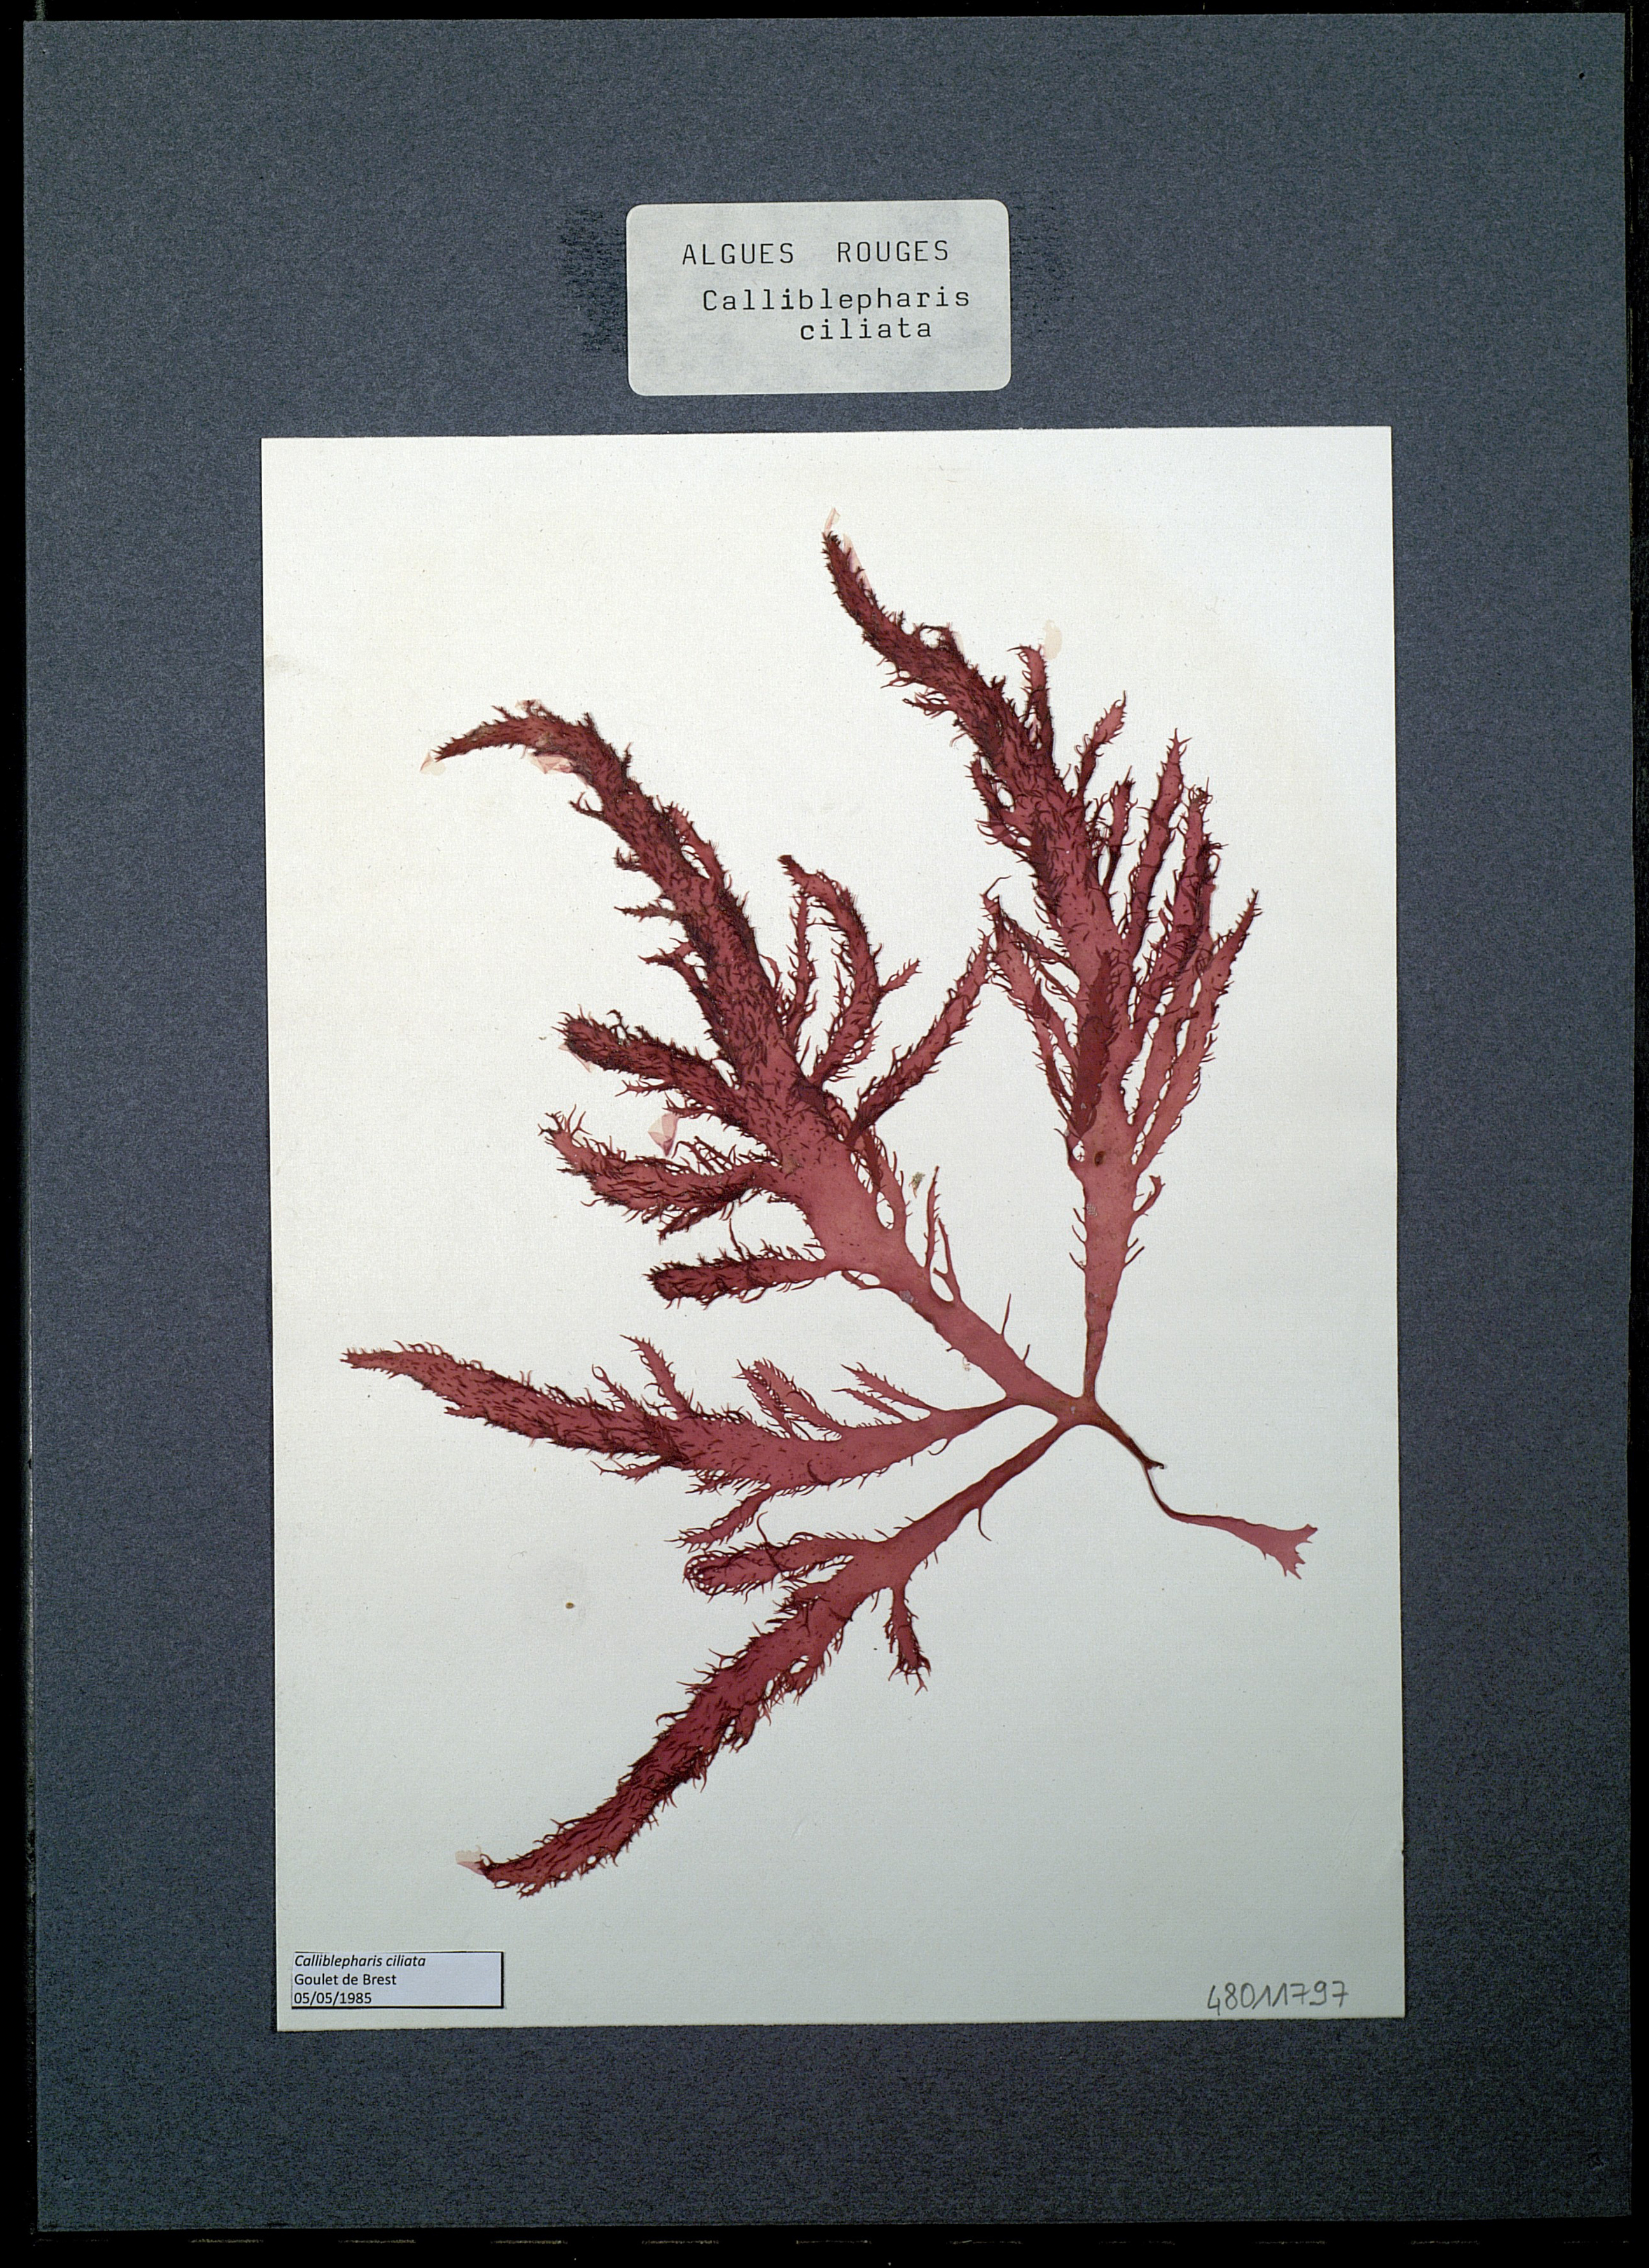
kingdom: Plantae
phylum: Rhodophyta
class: Florideophyceae
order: Gigartinales
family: Cystocloniaceae
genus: Calliblepharis
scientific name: Calliblepharis ciliata
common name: Eyelash weed
